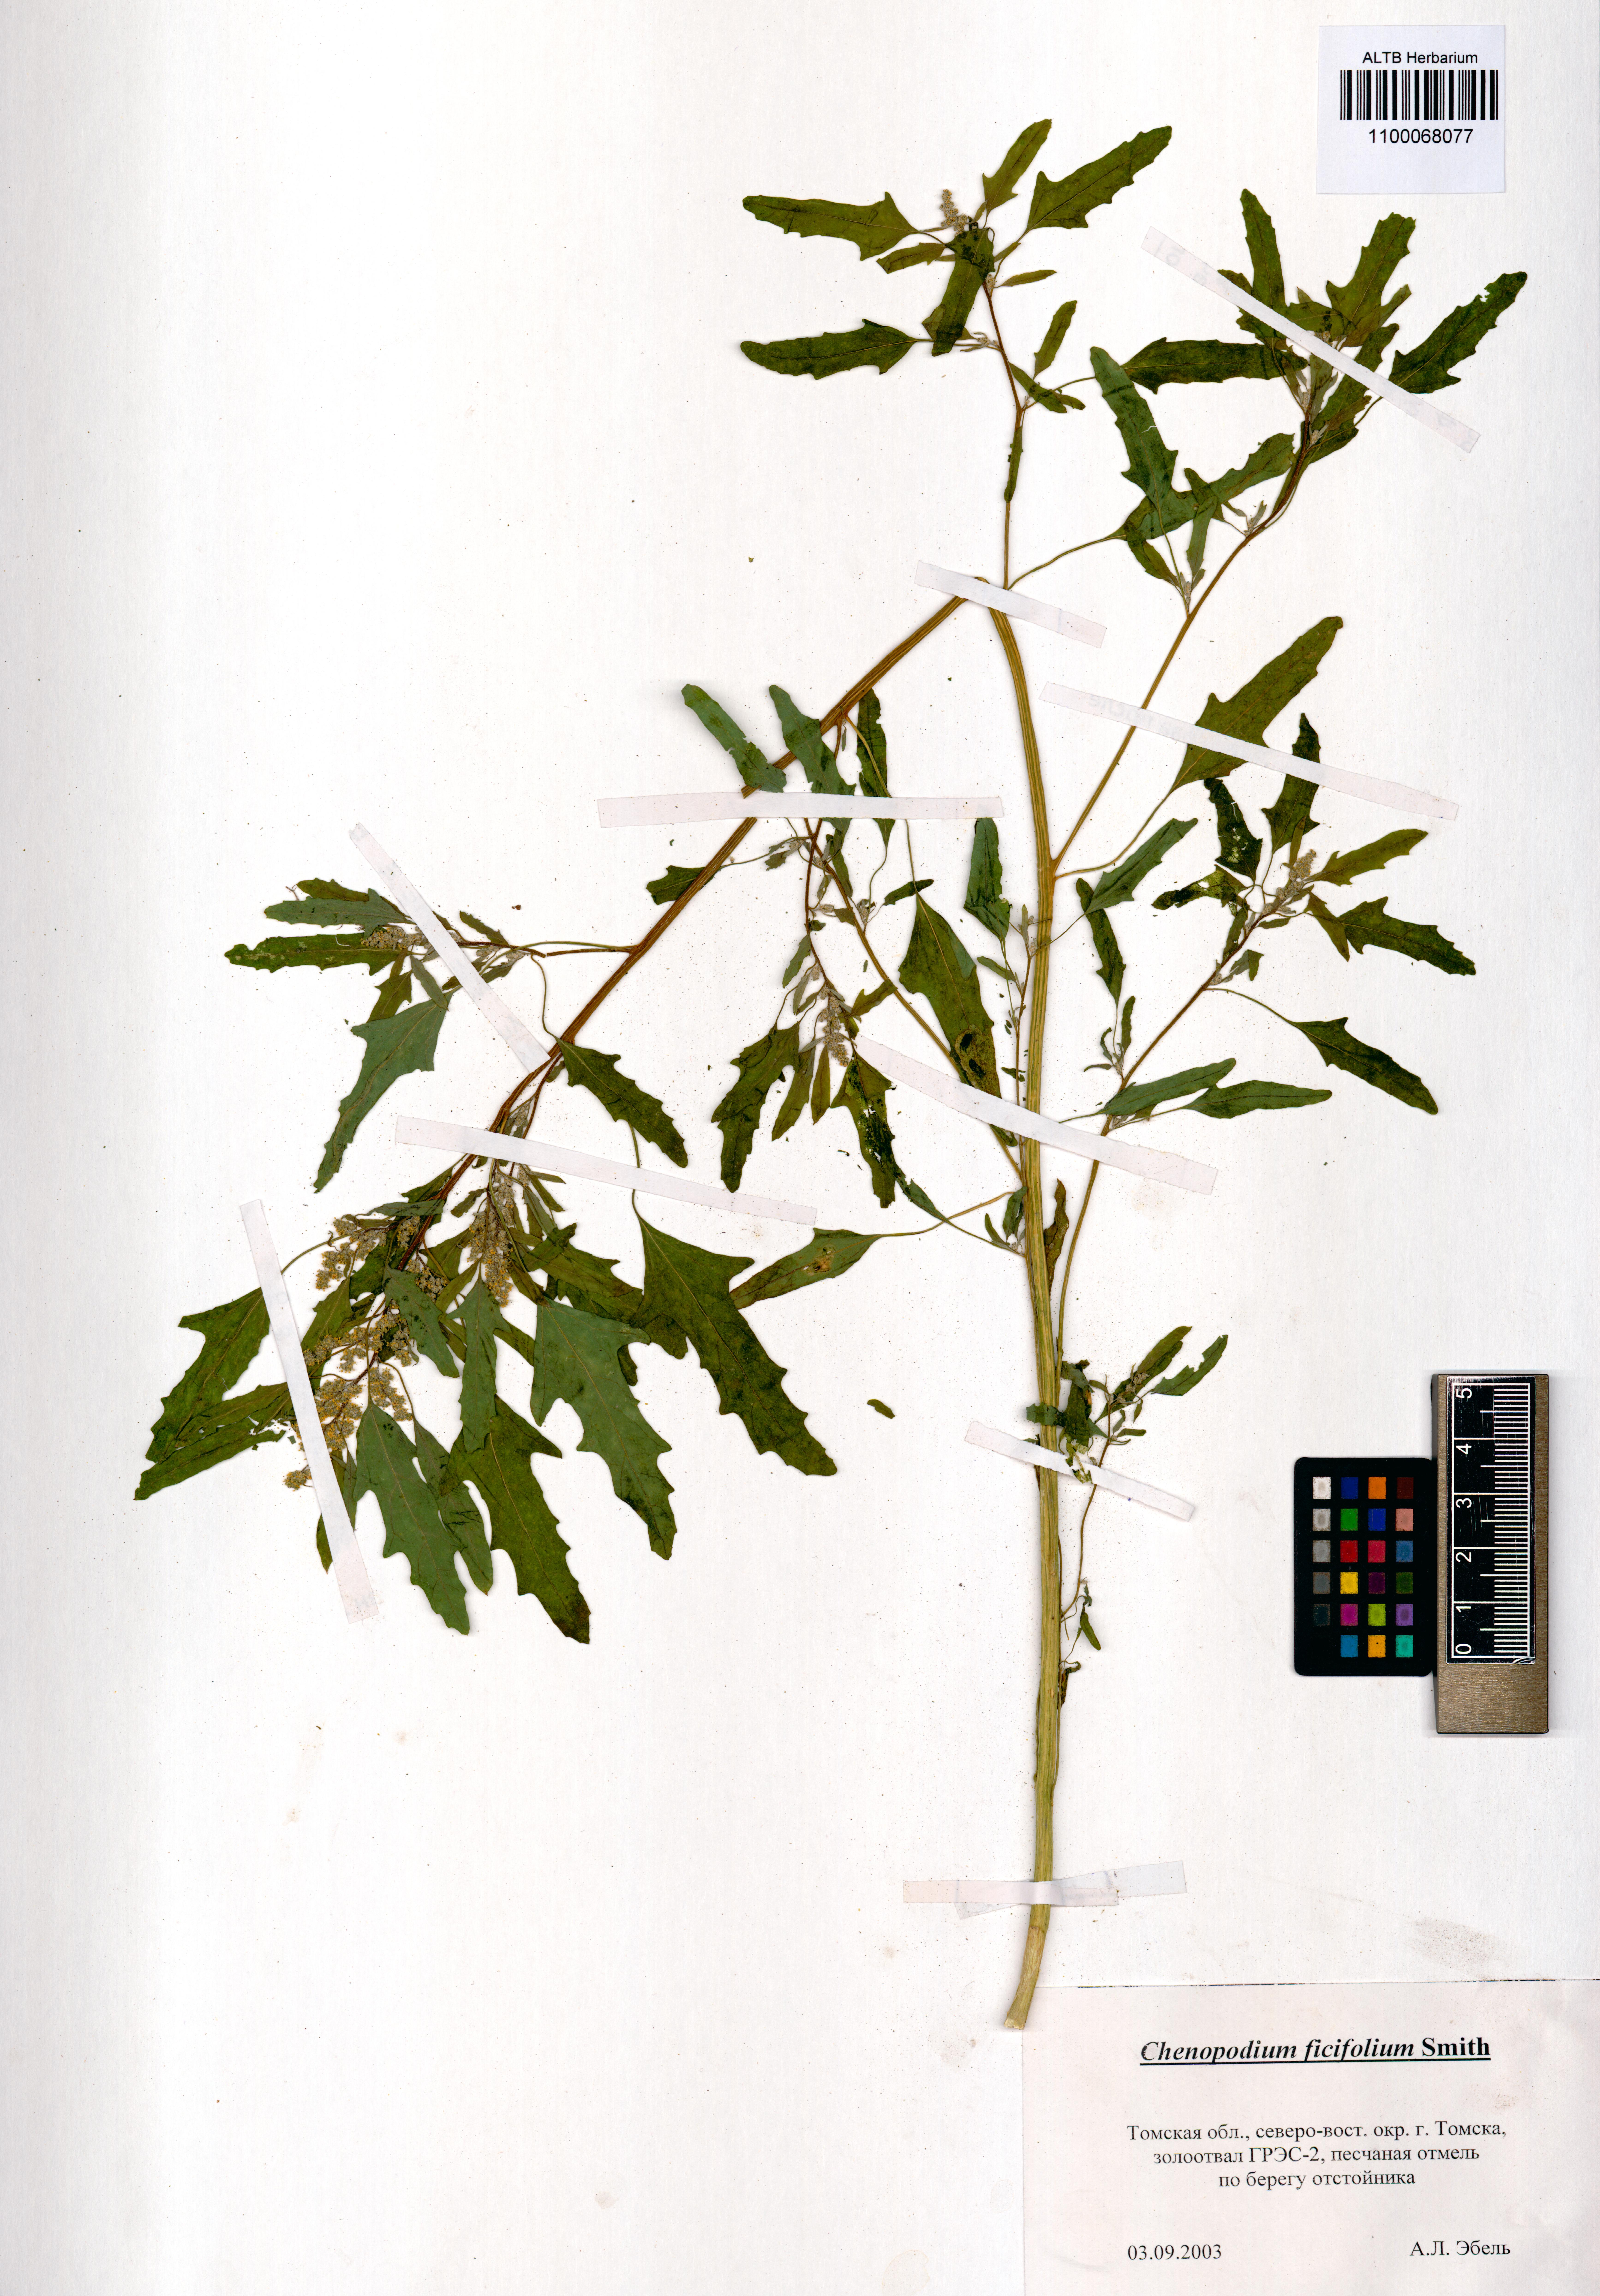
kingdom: Plantae
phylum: Tracheophyta
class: Magnoliopsida
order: Caryophyllales
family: Amaranthaceae
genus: Chenopodium
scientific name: Chenopodium ficifolium
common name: Fig-leaved goosefoot
